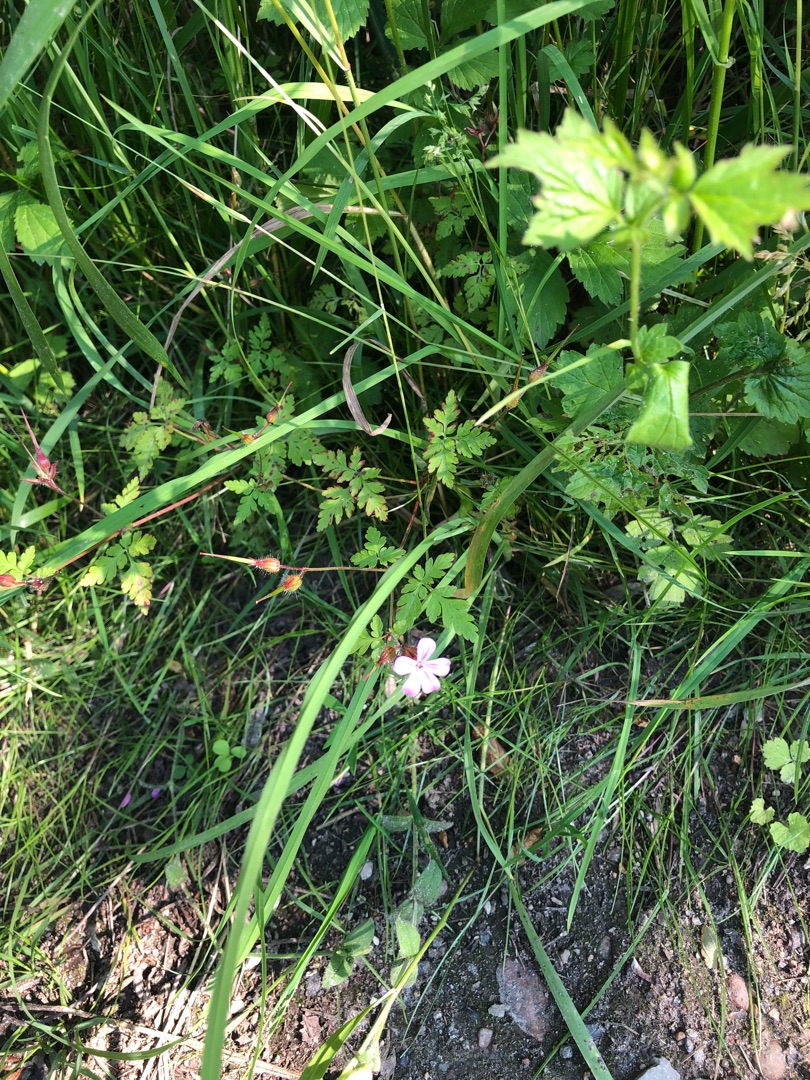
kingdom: Plantae
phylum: Tracheophyta
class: Magnoliopsida
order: Geraniales
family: Geraniaceae
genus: Geranium
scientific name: Geranium robertianum
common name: Stinkende storkenæb
